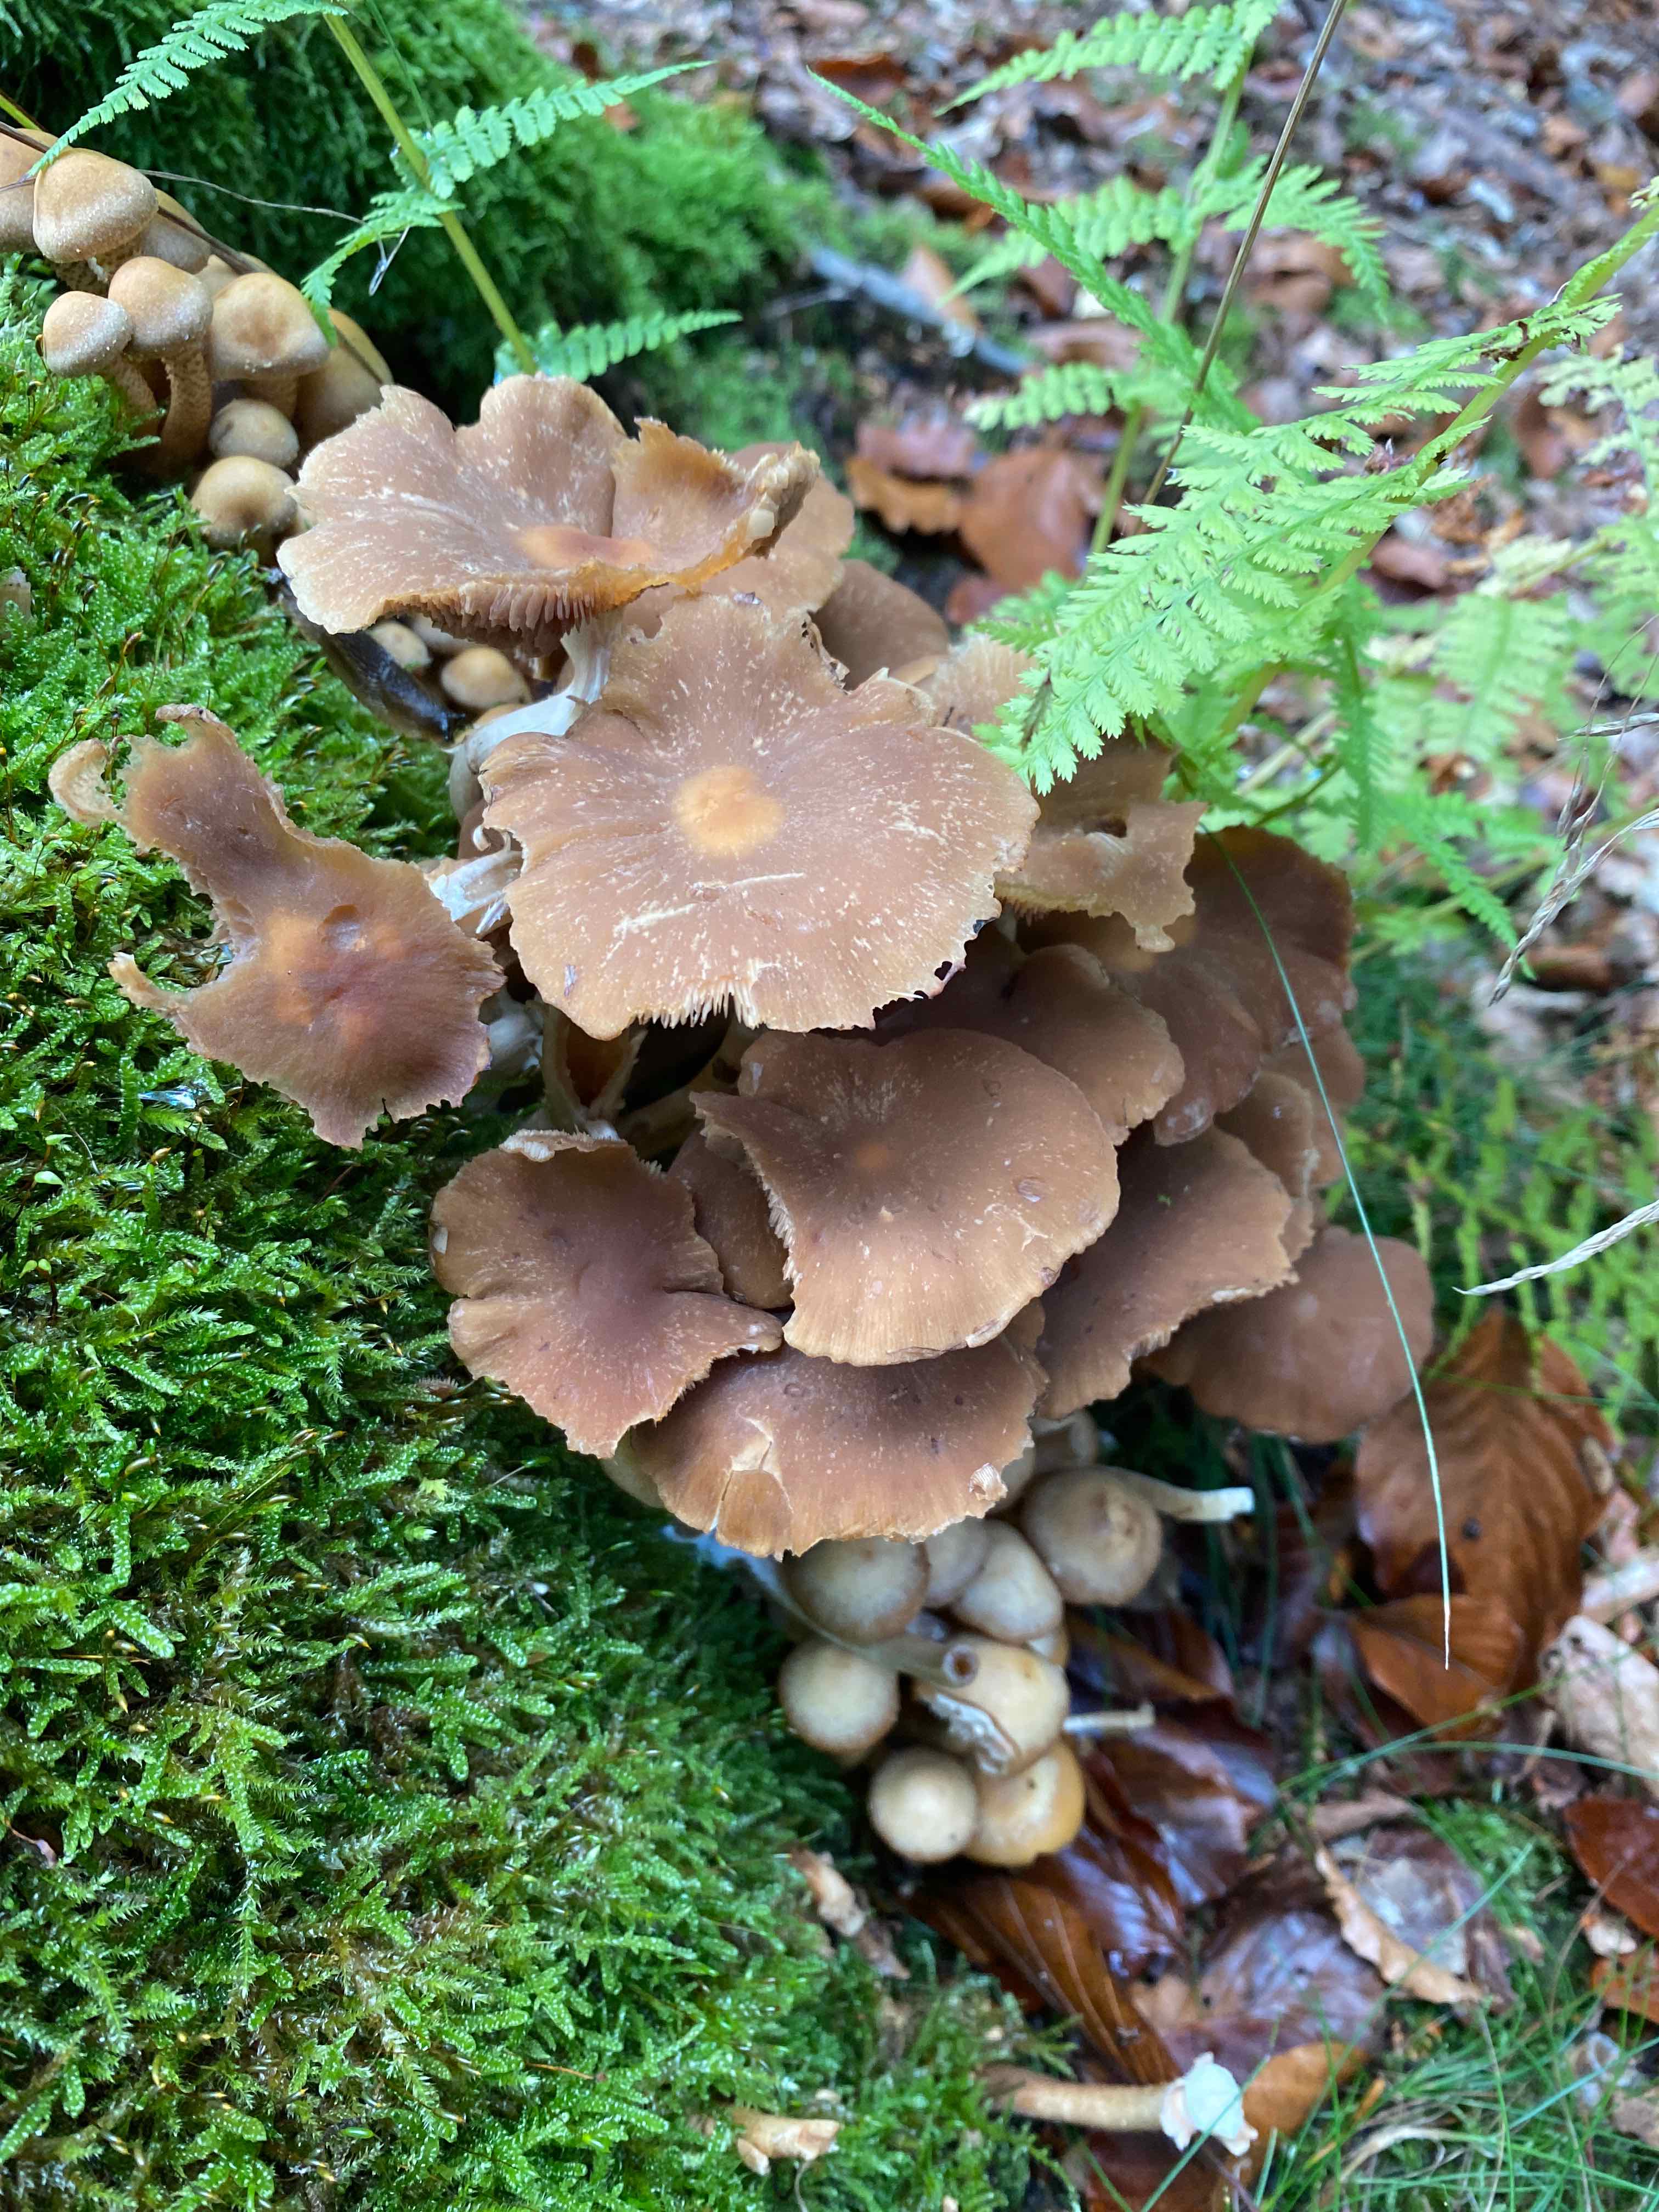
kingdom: Fungi
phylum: Basidiomycota
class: Agaricomycetes
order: Agaricales
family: Psathyrellaceae
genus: Psathyrella
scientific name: Psathyrella piluliformis
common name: lysstokket mørkhat
